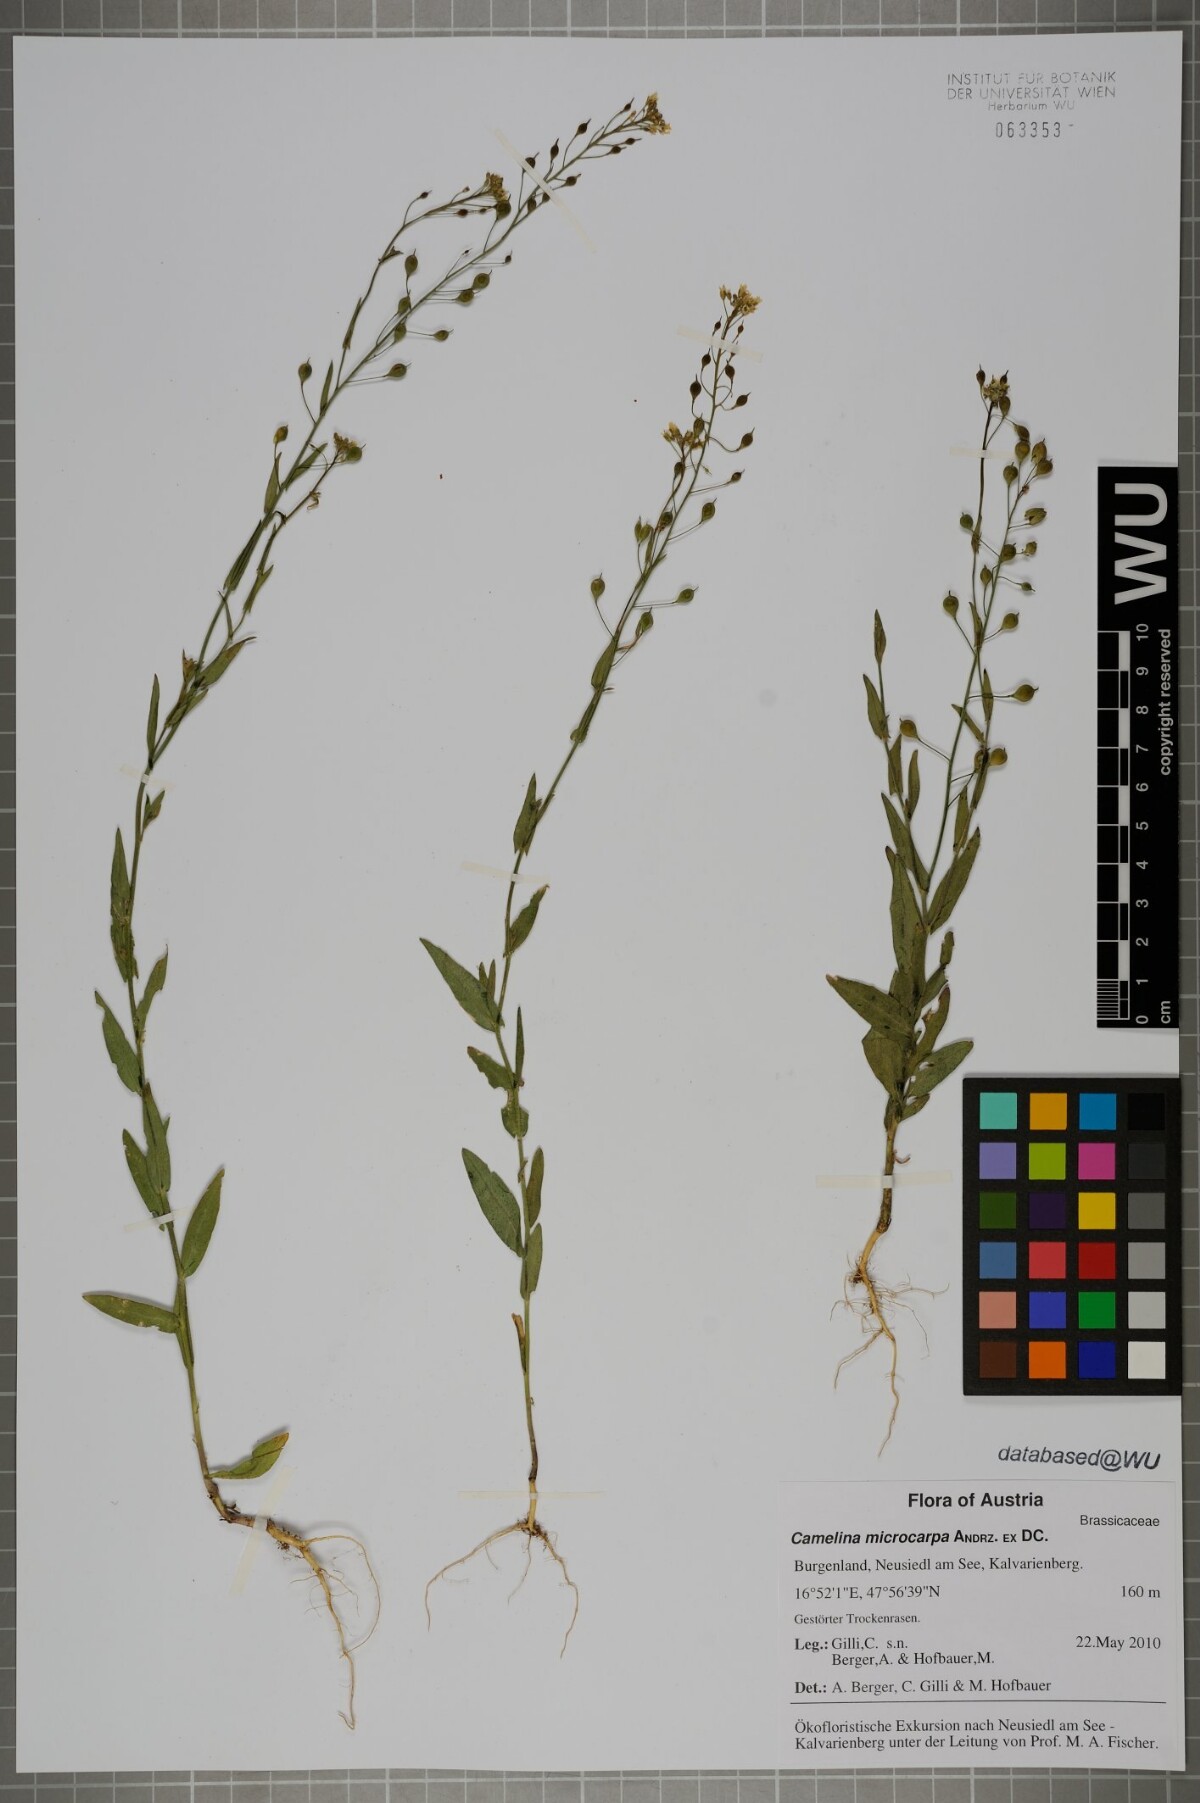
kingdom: Plantae
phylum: Tracheophyta
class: Magnoliopsida
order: Brassicales
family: Brassicaceae
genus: Camelina
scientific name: Camelina microcarpa
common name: Lesser gold-of-pleasure
